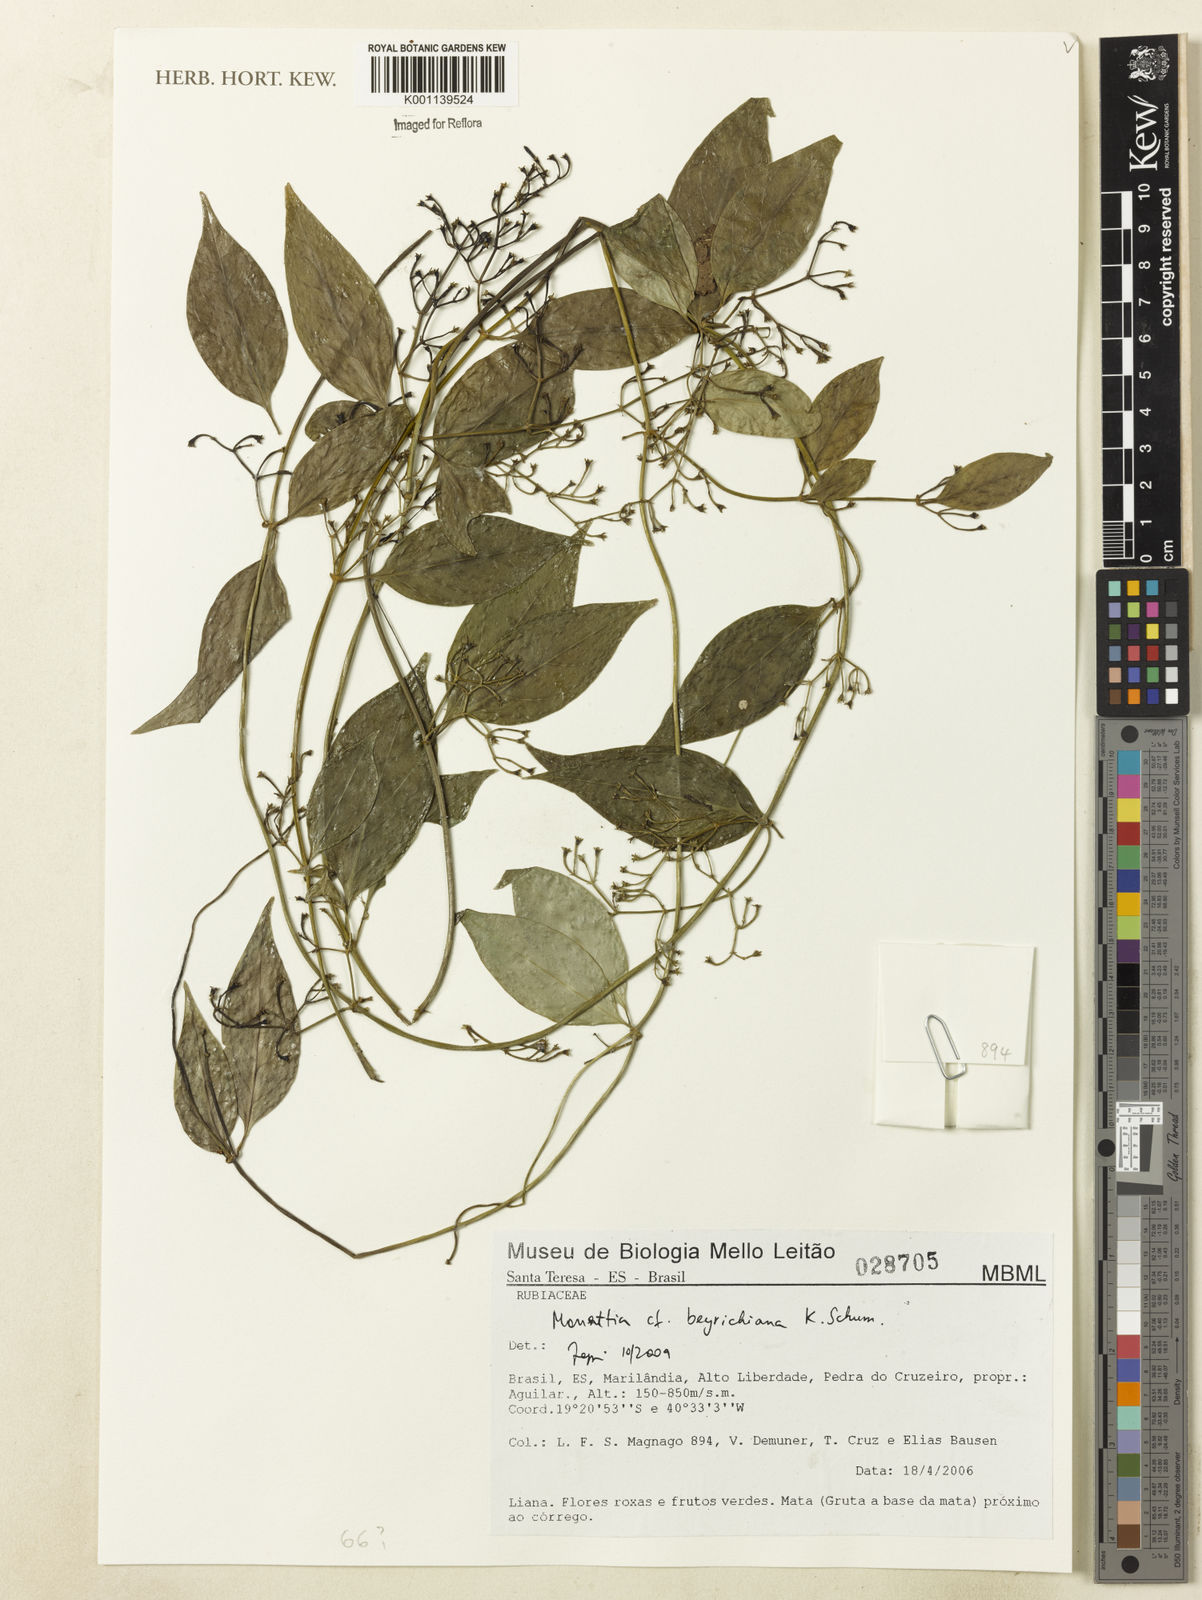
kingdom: Plantae
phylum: Tracheophyta
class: Magnoliopsida
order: Gentianales
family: Rubiaceae
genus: Manettia
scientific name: Manettia beyrichiana
